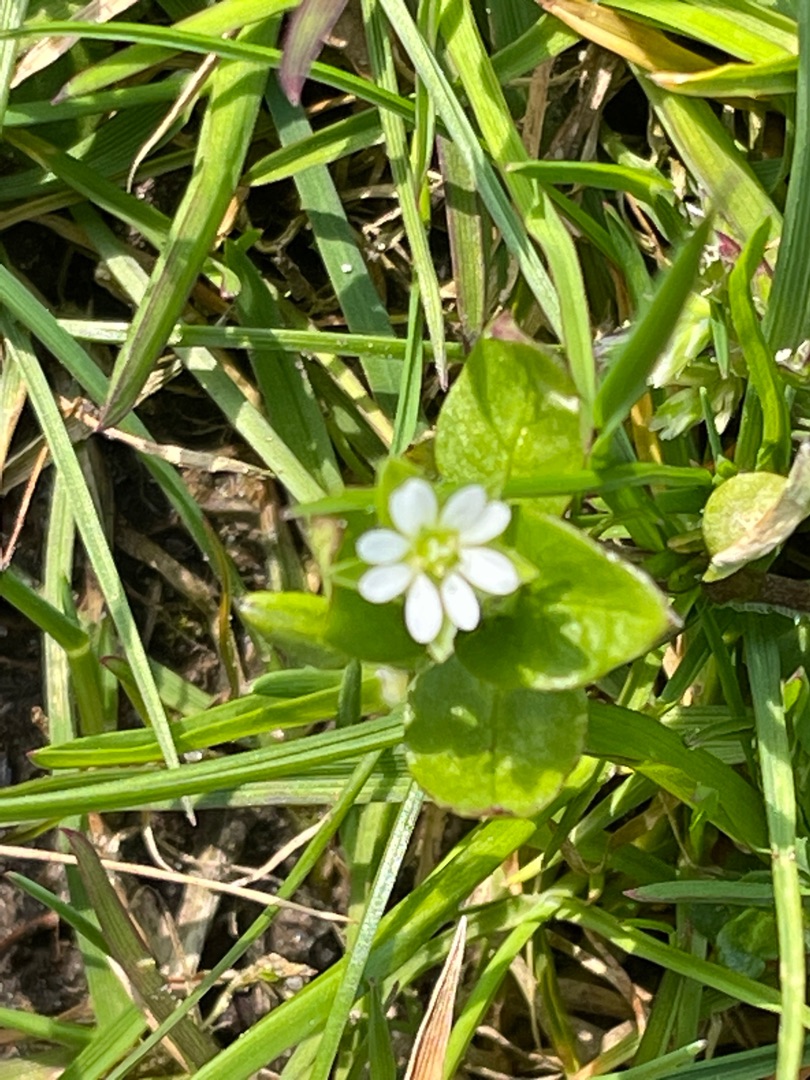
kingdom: Plantae
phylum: Tracheophyta
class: Magnoliopsida
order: Caryophyllales
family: Caryophyllaceae
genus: Stellaria
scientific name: Stellaria media
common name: Almindelig fuglegræs
